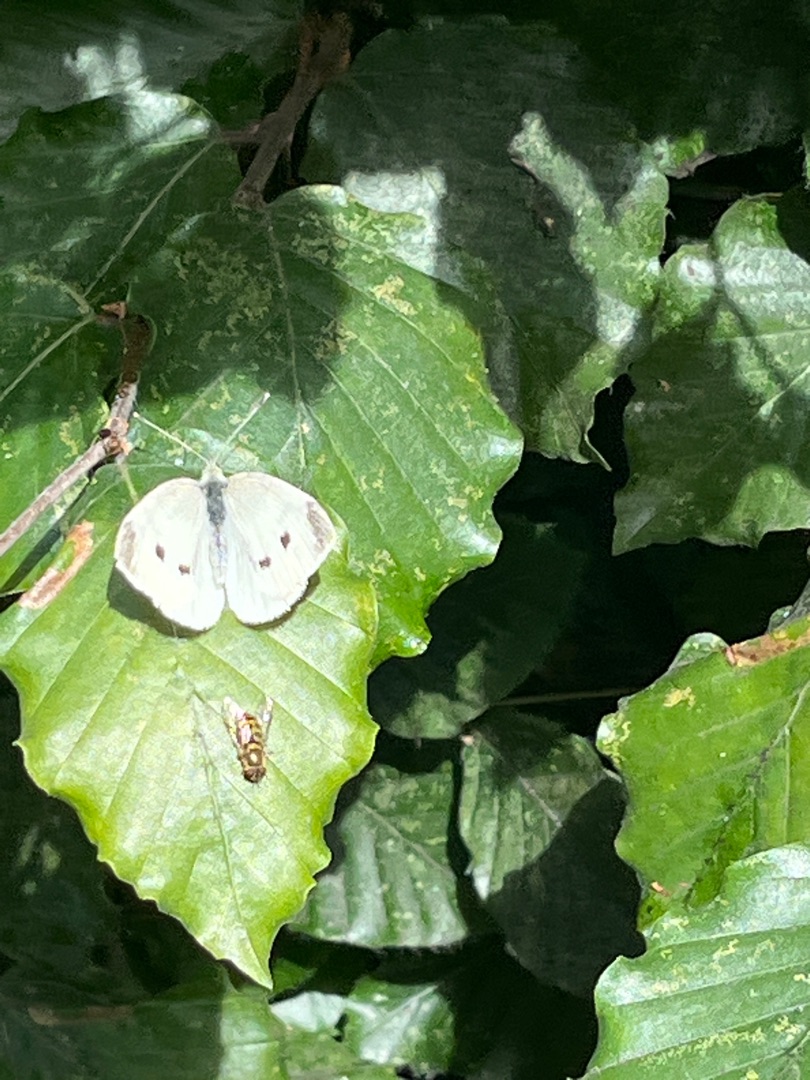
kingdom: Animalia
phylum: Arthropoda
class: Insecta
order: Lepidoptera
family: Pieridae
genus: Pieris
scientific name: Pieris rapae
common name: Lille kålsommerfugl
